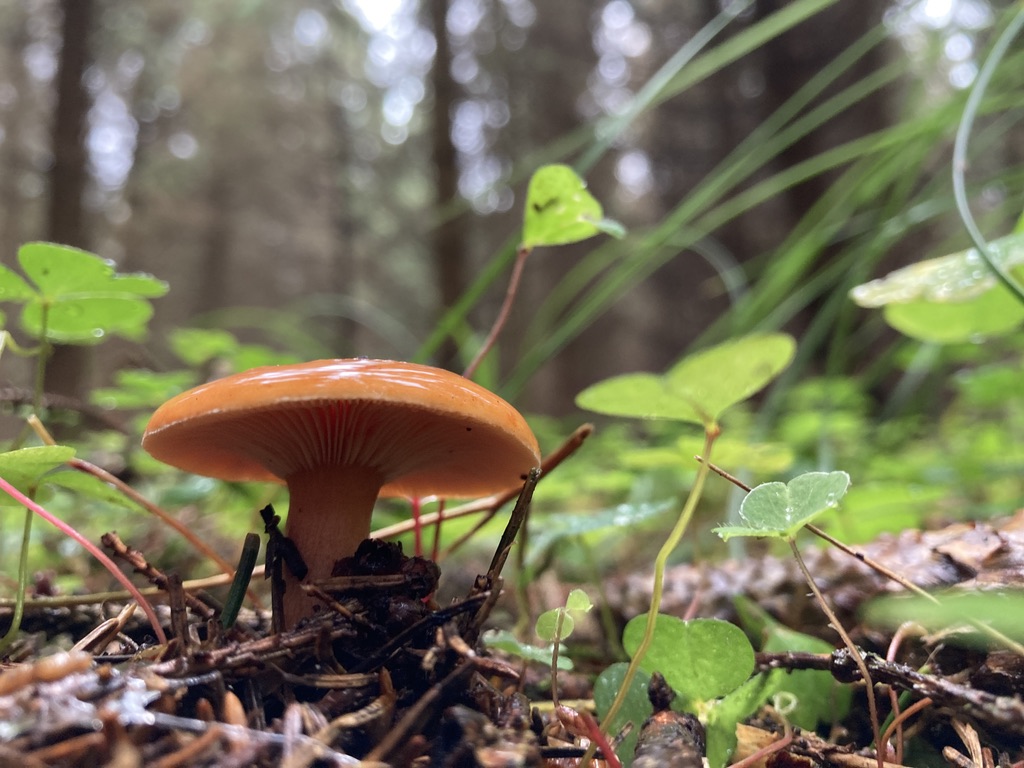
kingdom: Fungi
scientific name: Fungi
